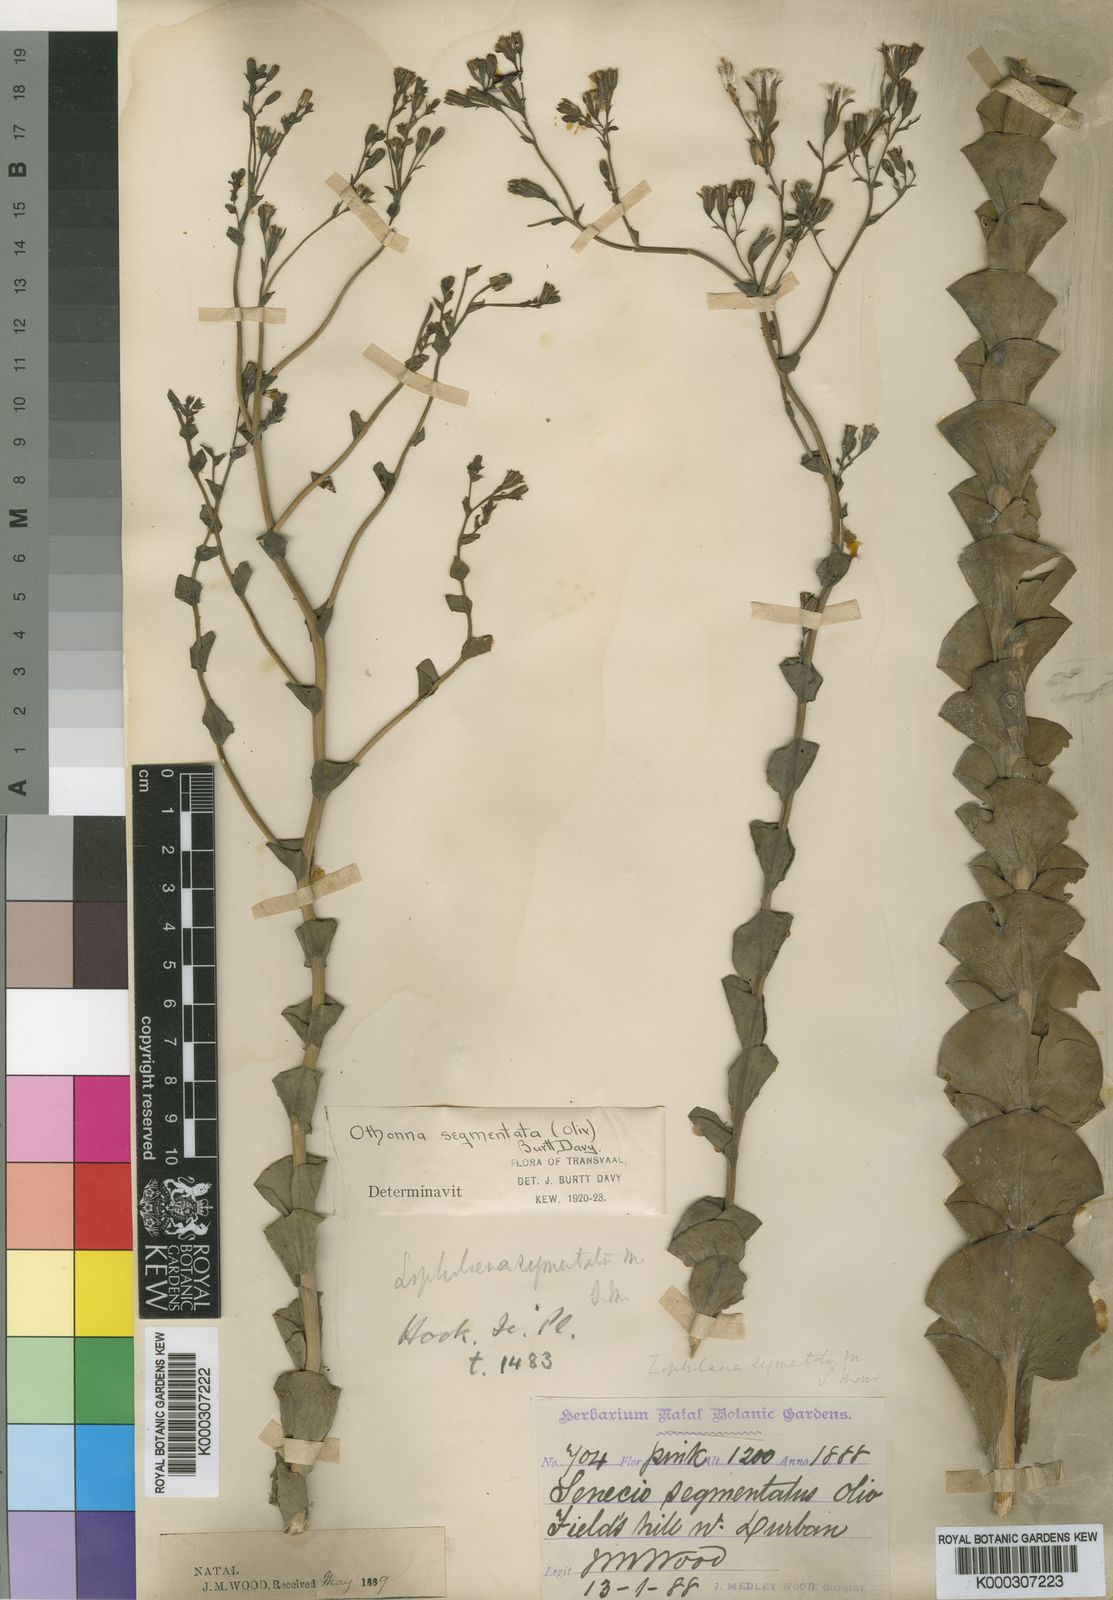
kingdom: Plantae
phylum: Tracheophyta
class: Magnoliopsida
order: Asterales
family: Asteraceae
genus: Lopholaena
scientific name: Lopholaena segmentata
